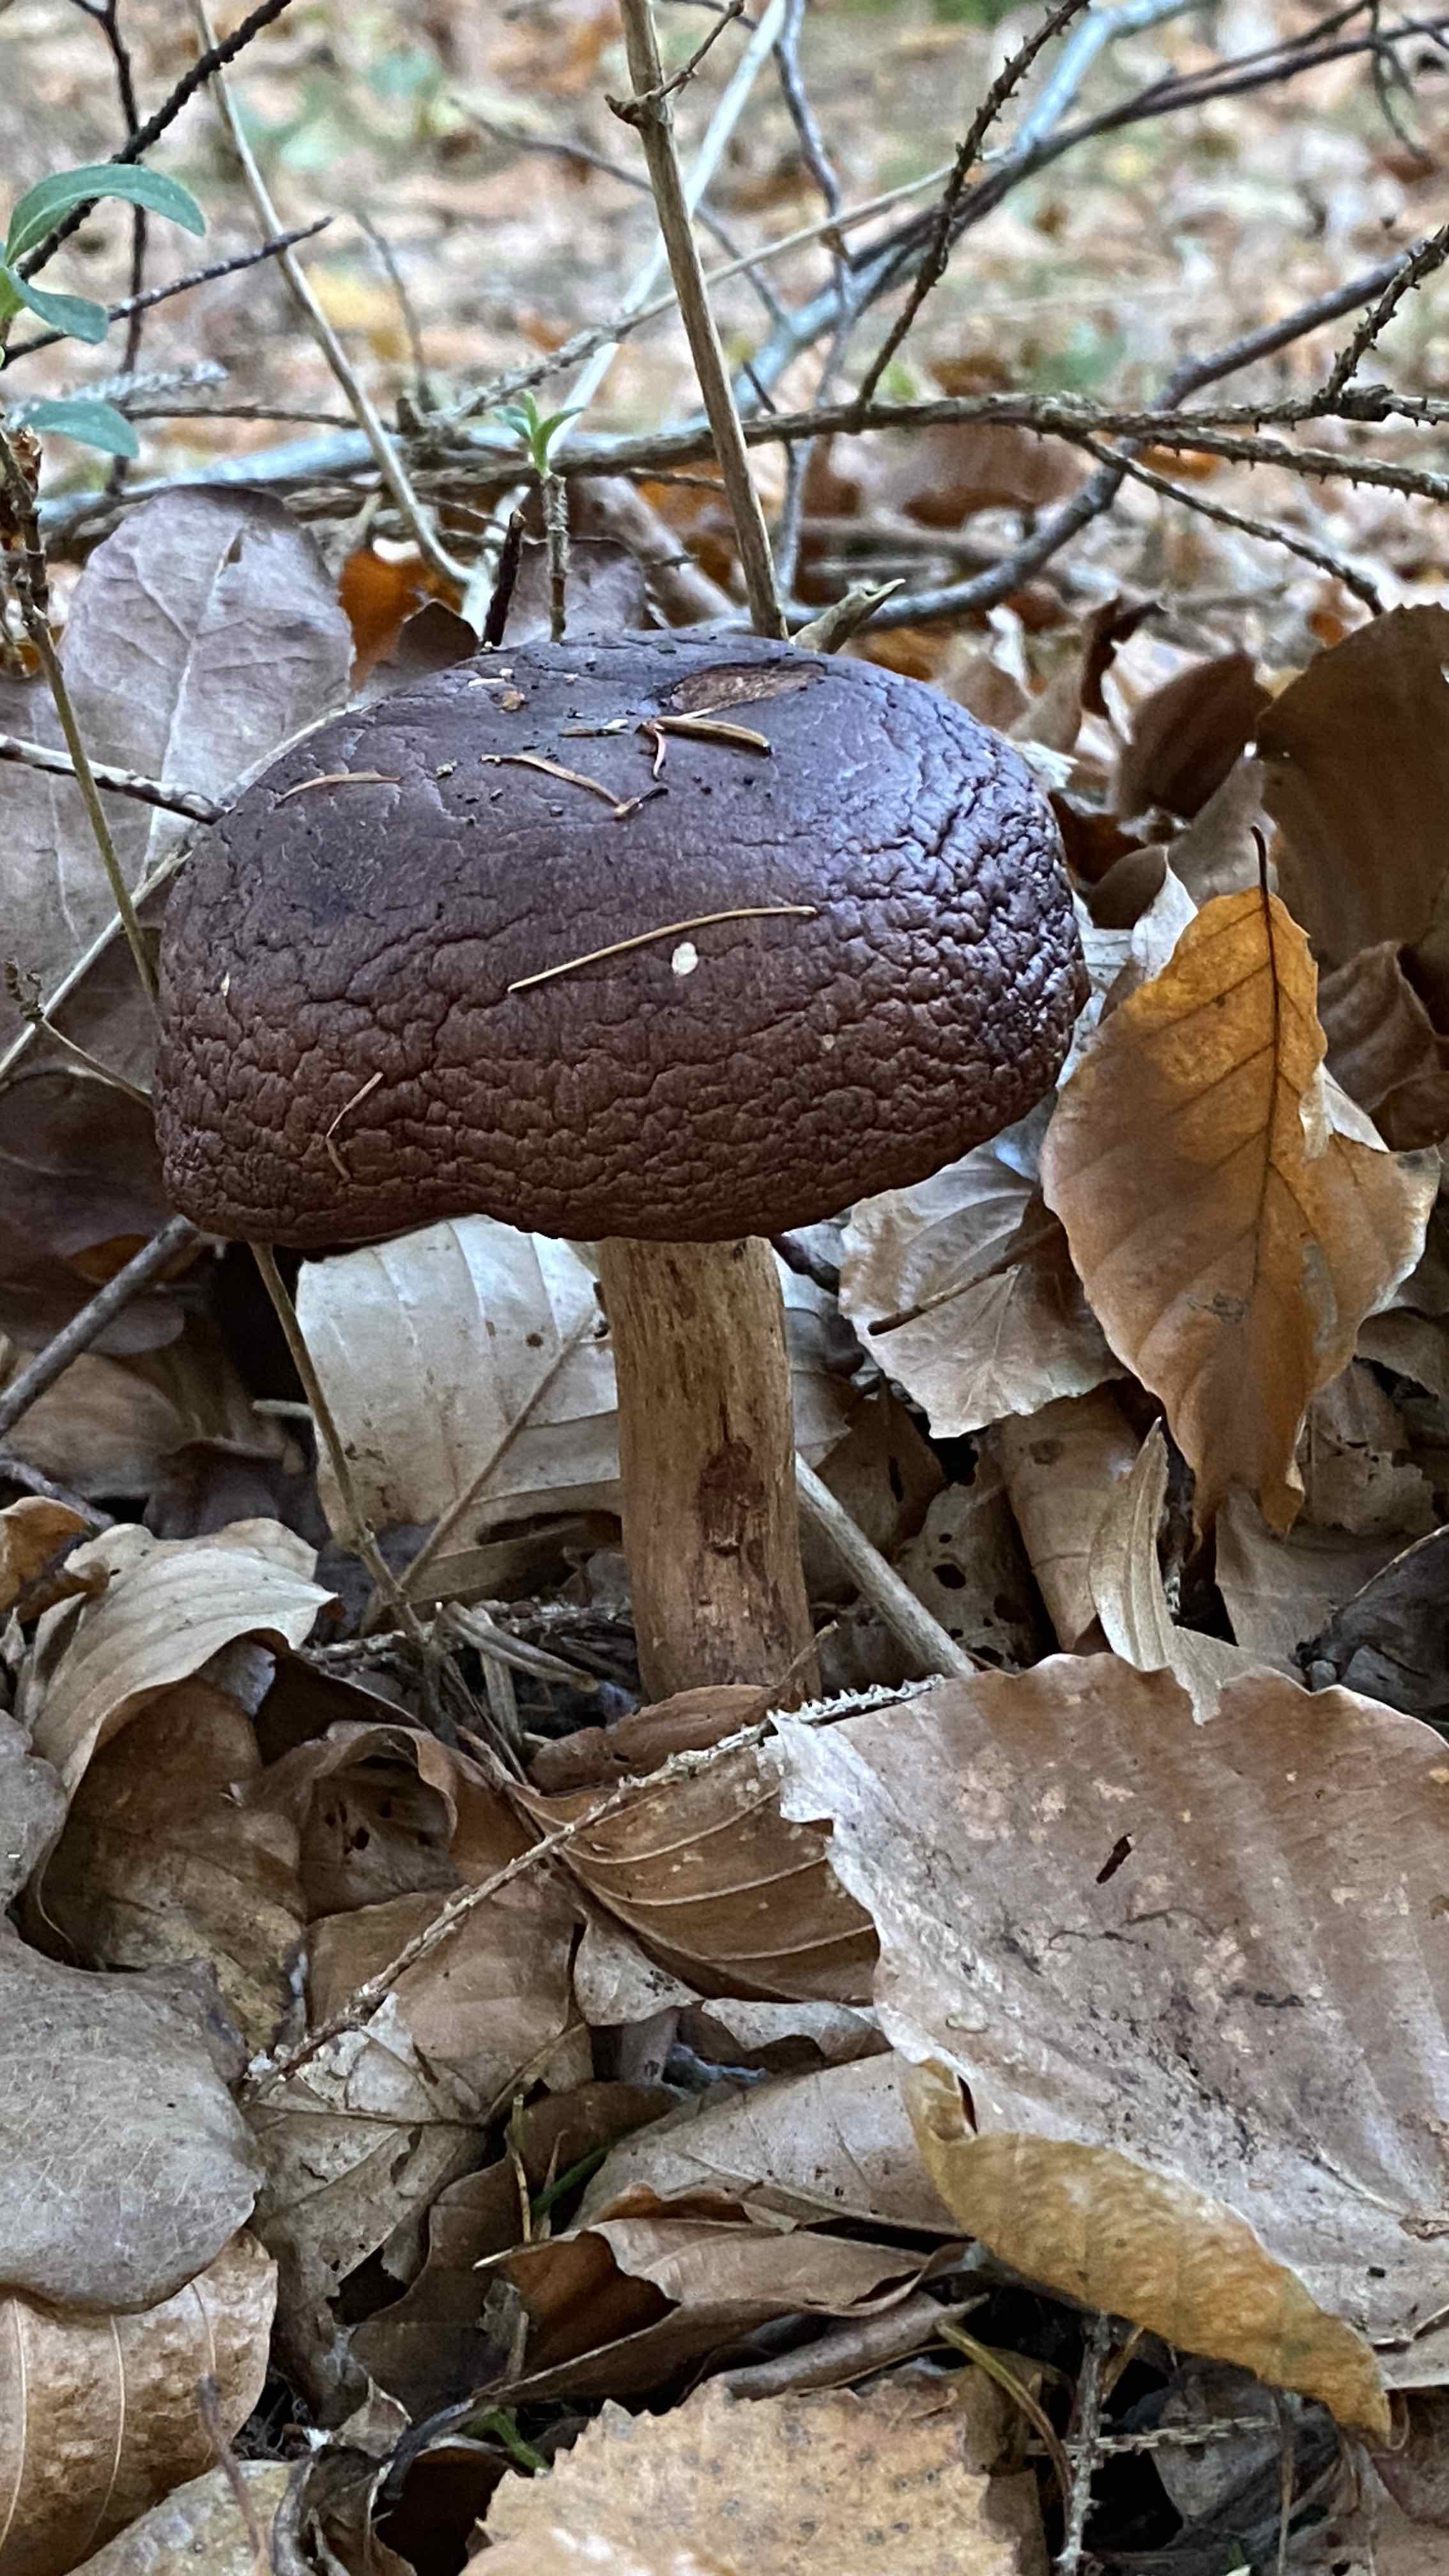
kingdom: Fungi
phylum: Basidiomycota
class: Agaricomycetes
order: Agaricales
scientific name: Agaricales
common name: champignonordenen
